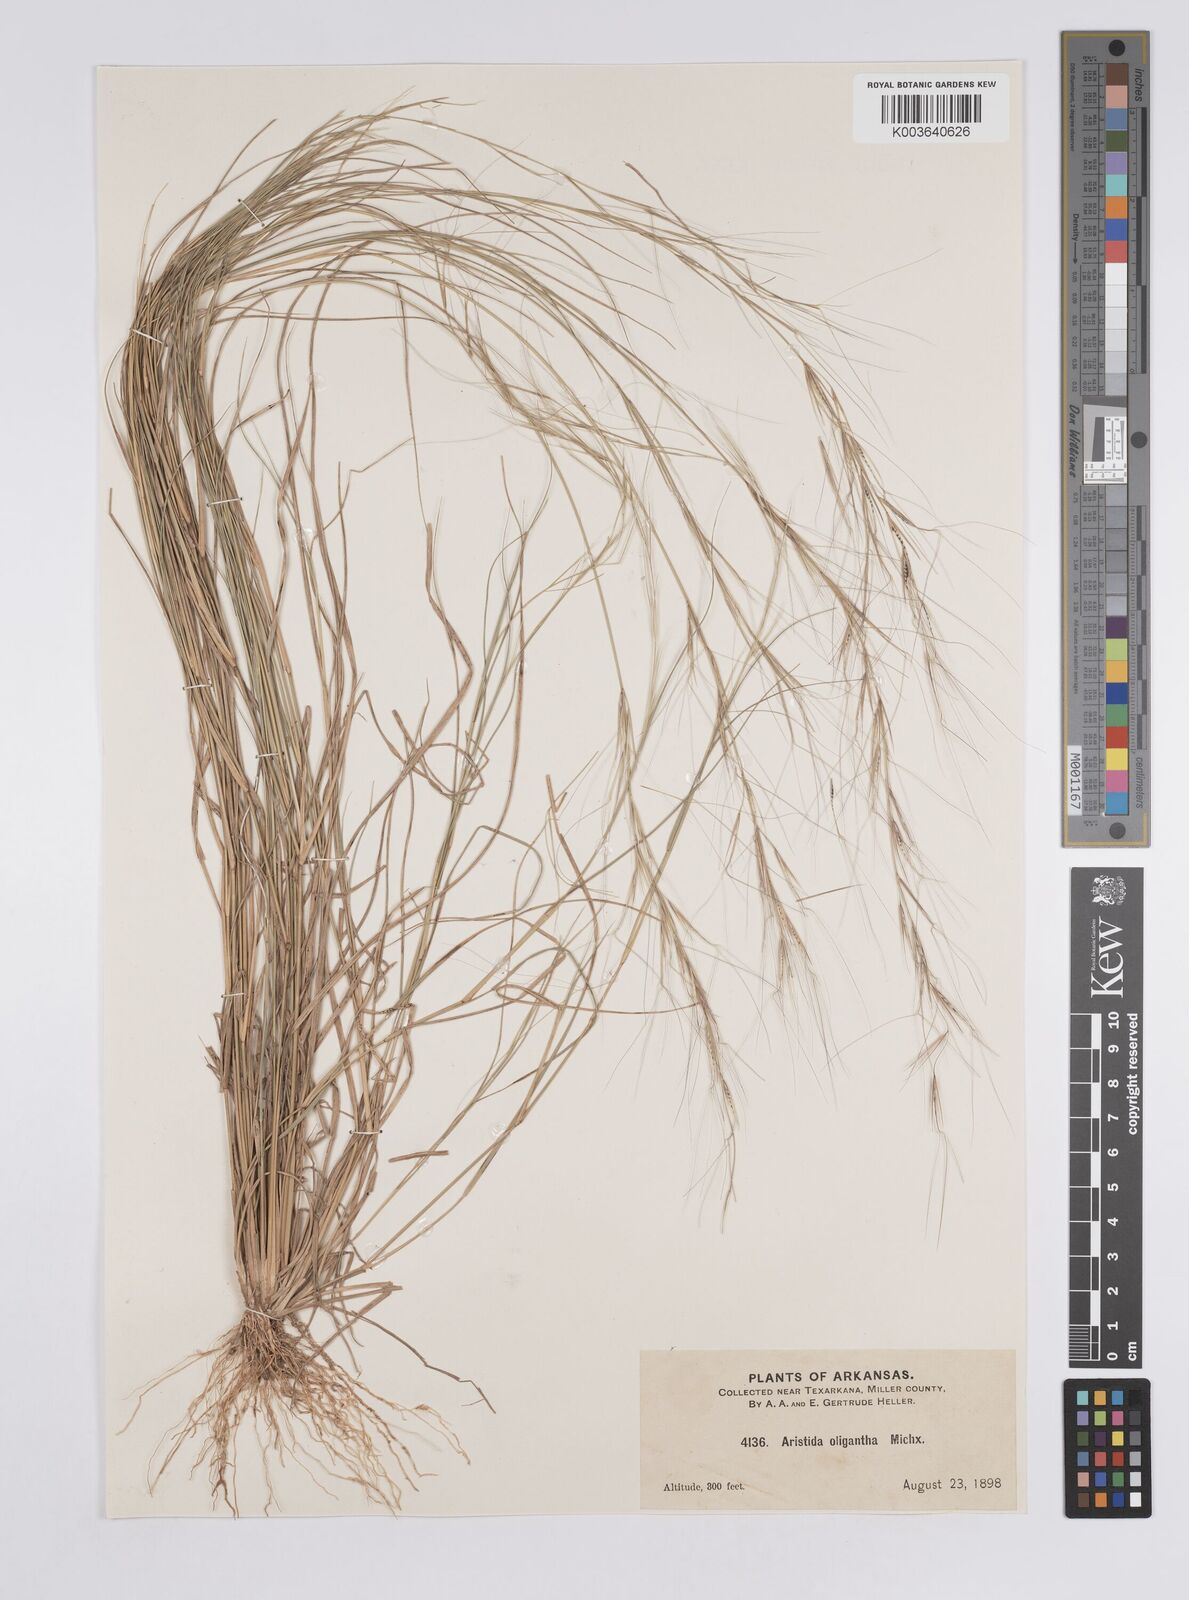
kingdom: Plantae
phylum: Tracheophyta
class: Liliopsida
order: Poales
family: Poaceae
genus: Aristida
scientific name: Aristida oligantha
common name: Few-flowered aristida
